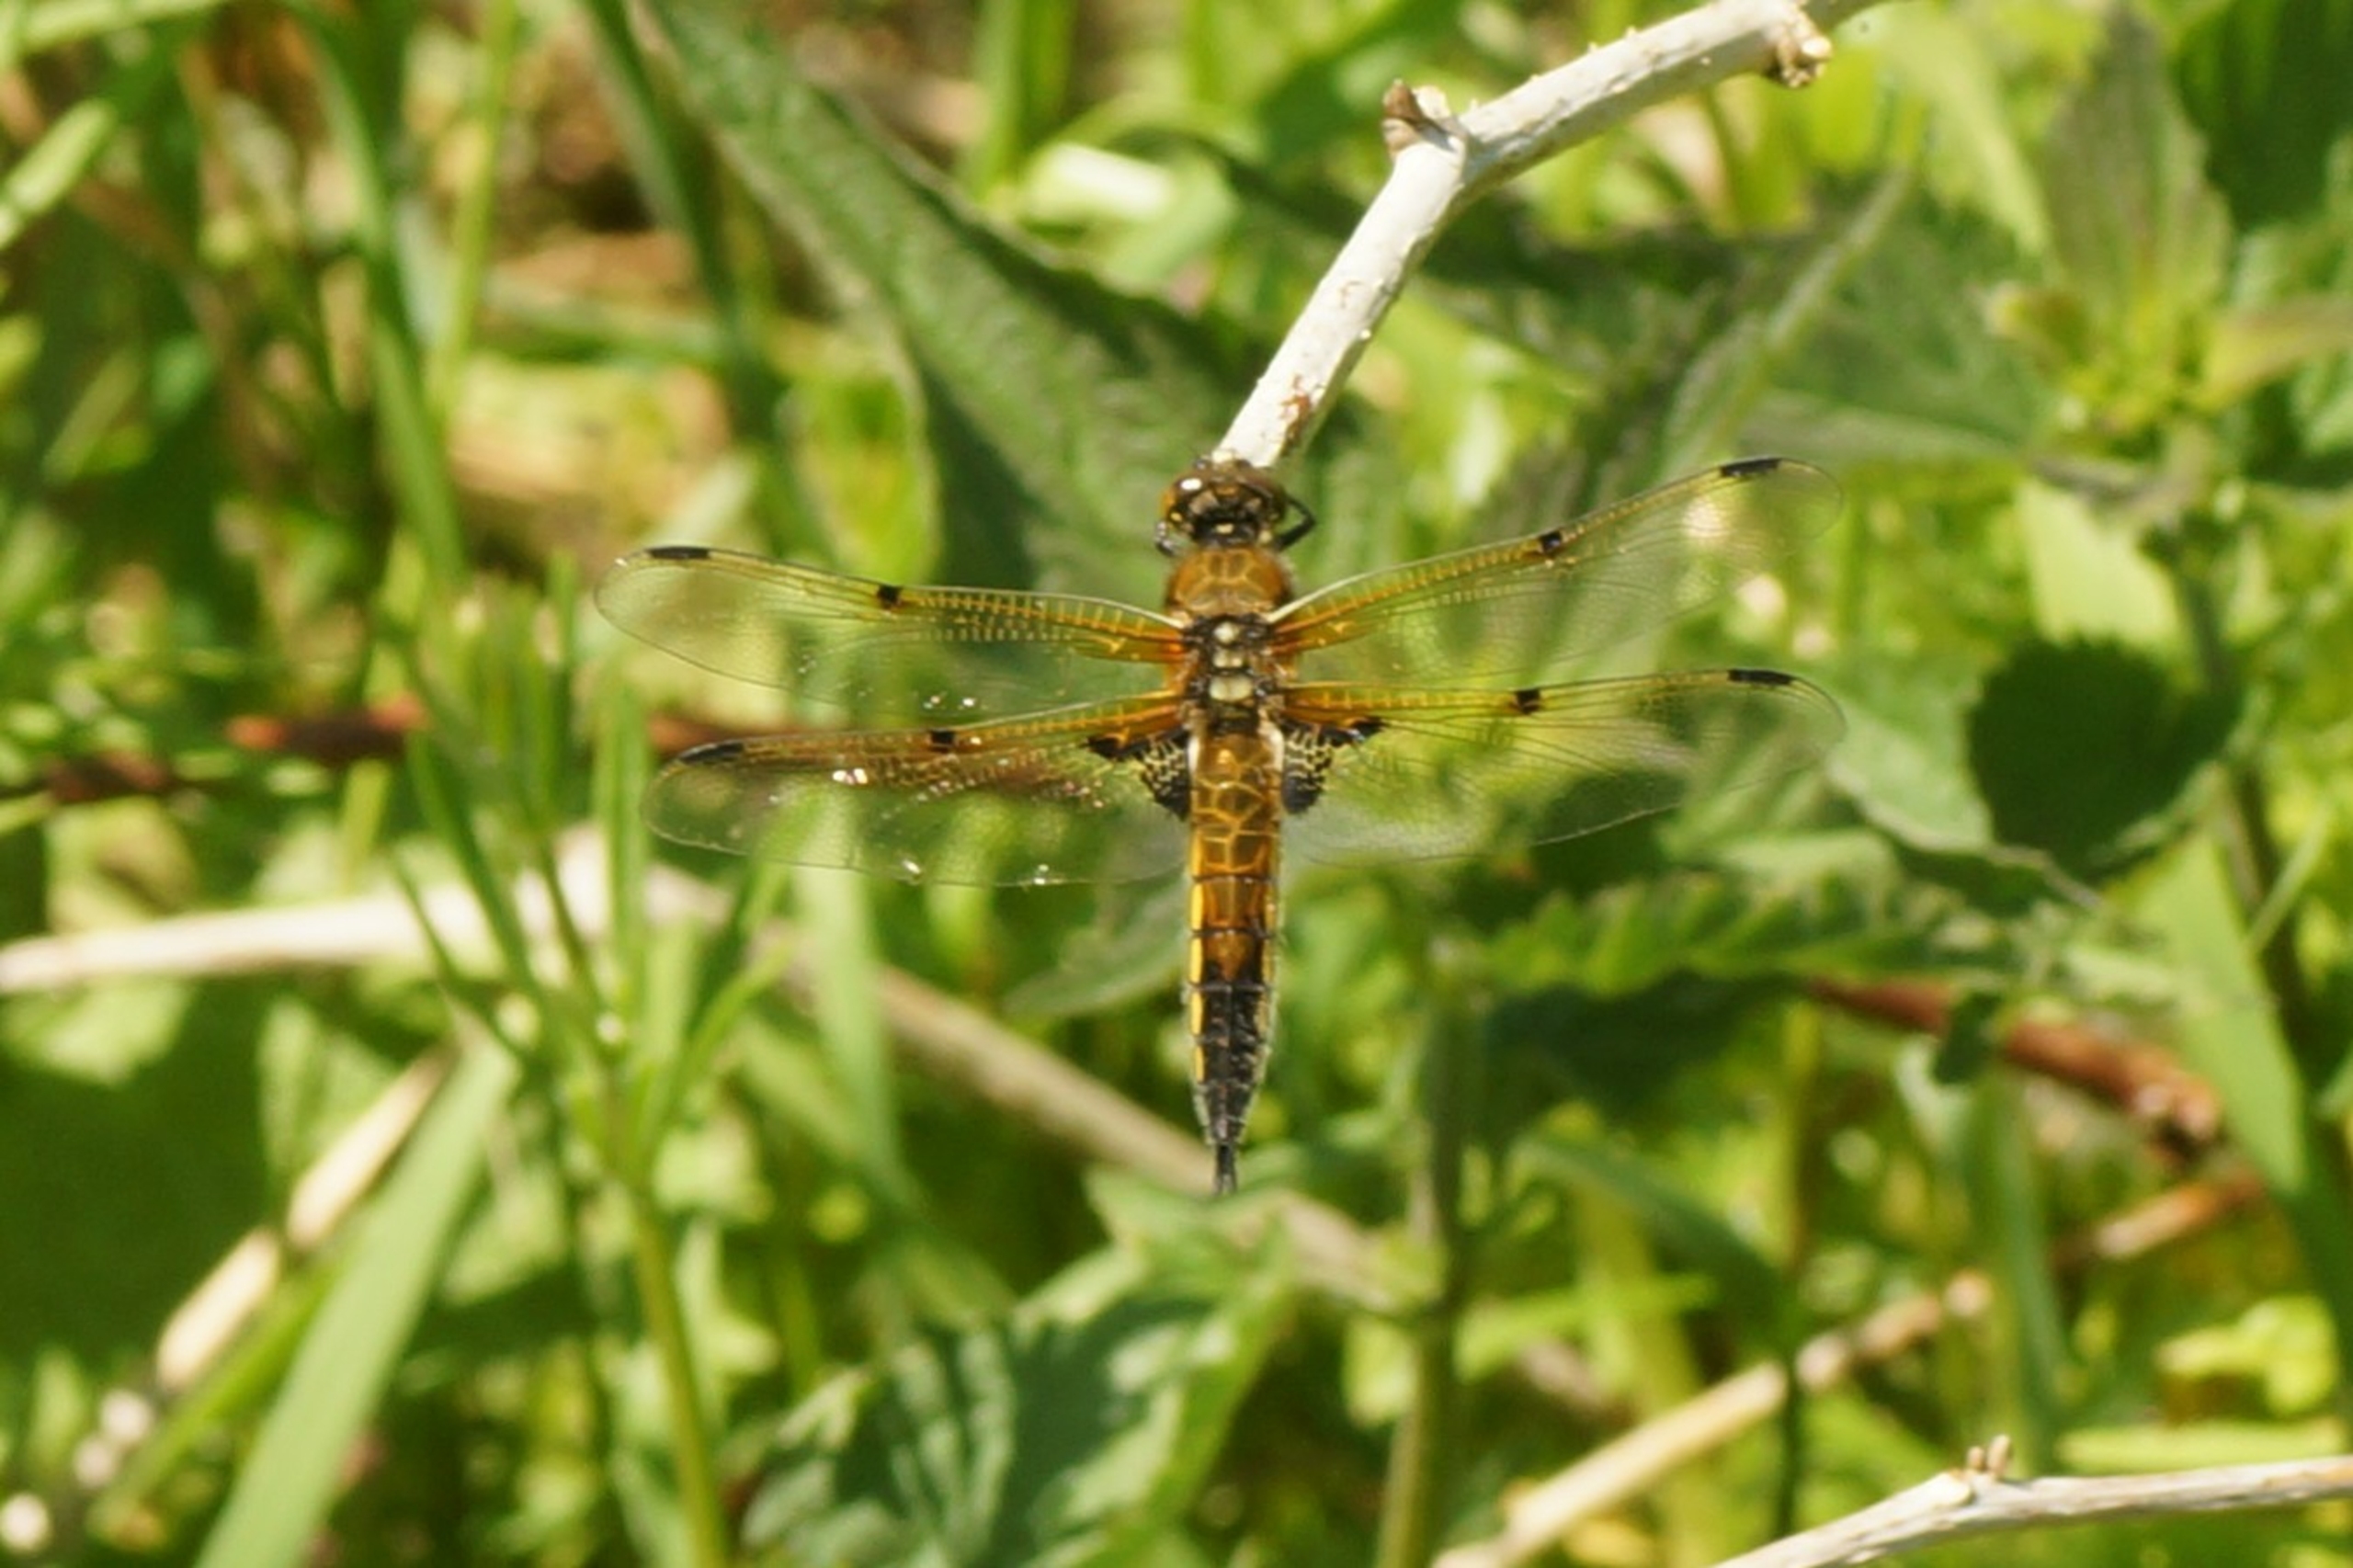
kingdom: Animalia
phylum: Arthropoda
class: Insecta
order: Odonata
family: Libellulidae
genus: Libellula
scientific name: Libellula quadrimaculata
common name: Fireplettet libel
